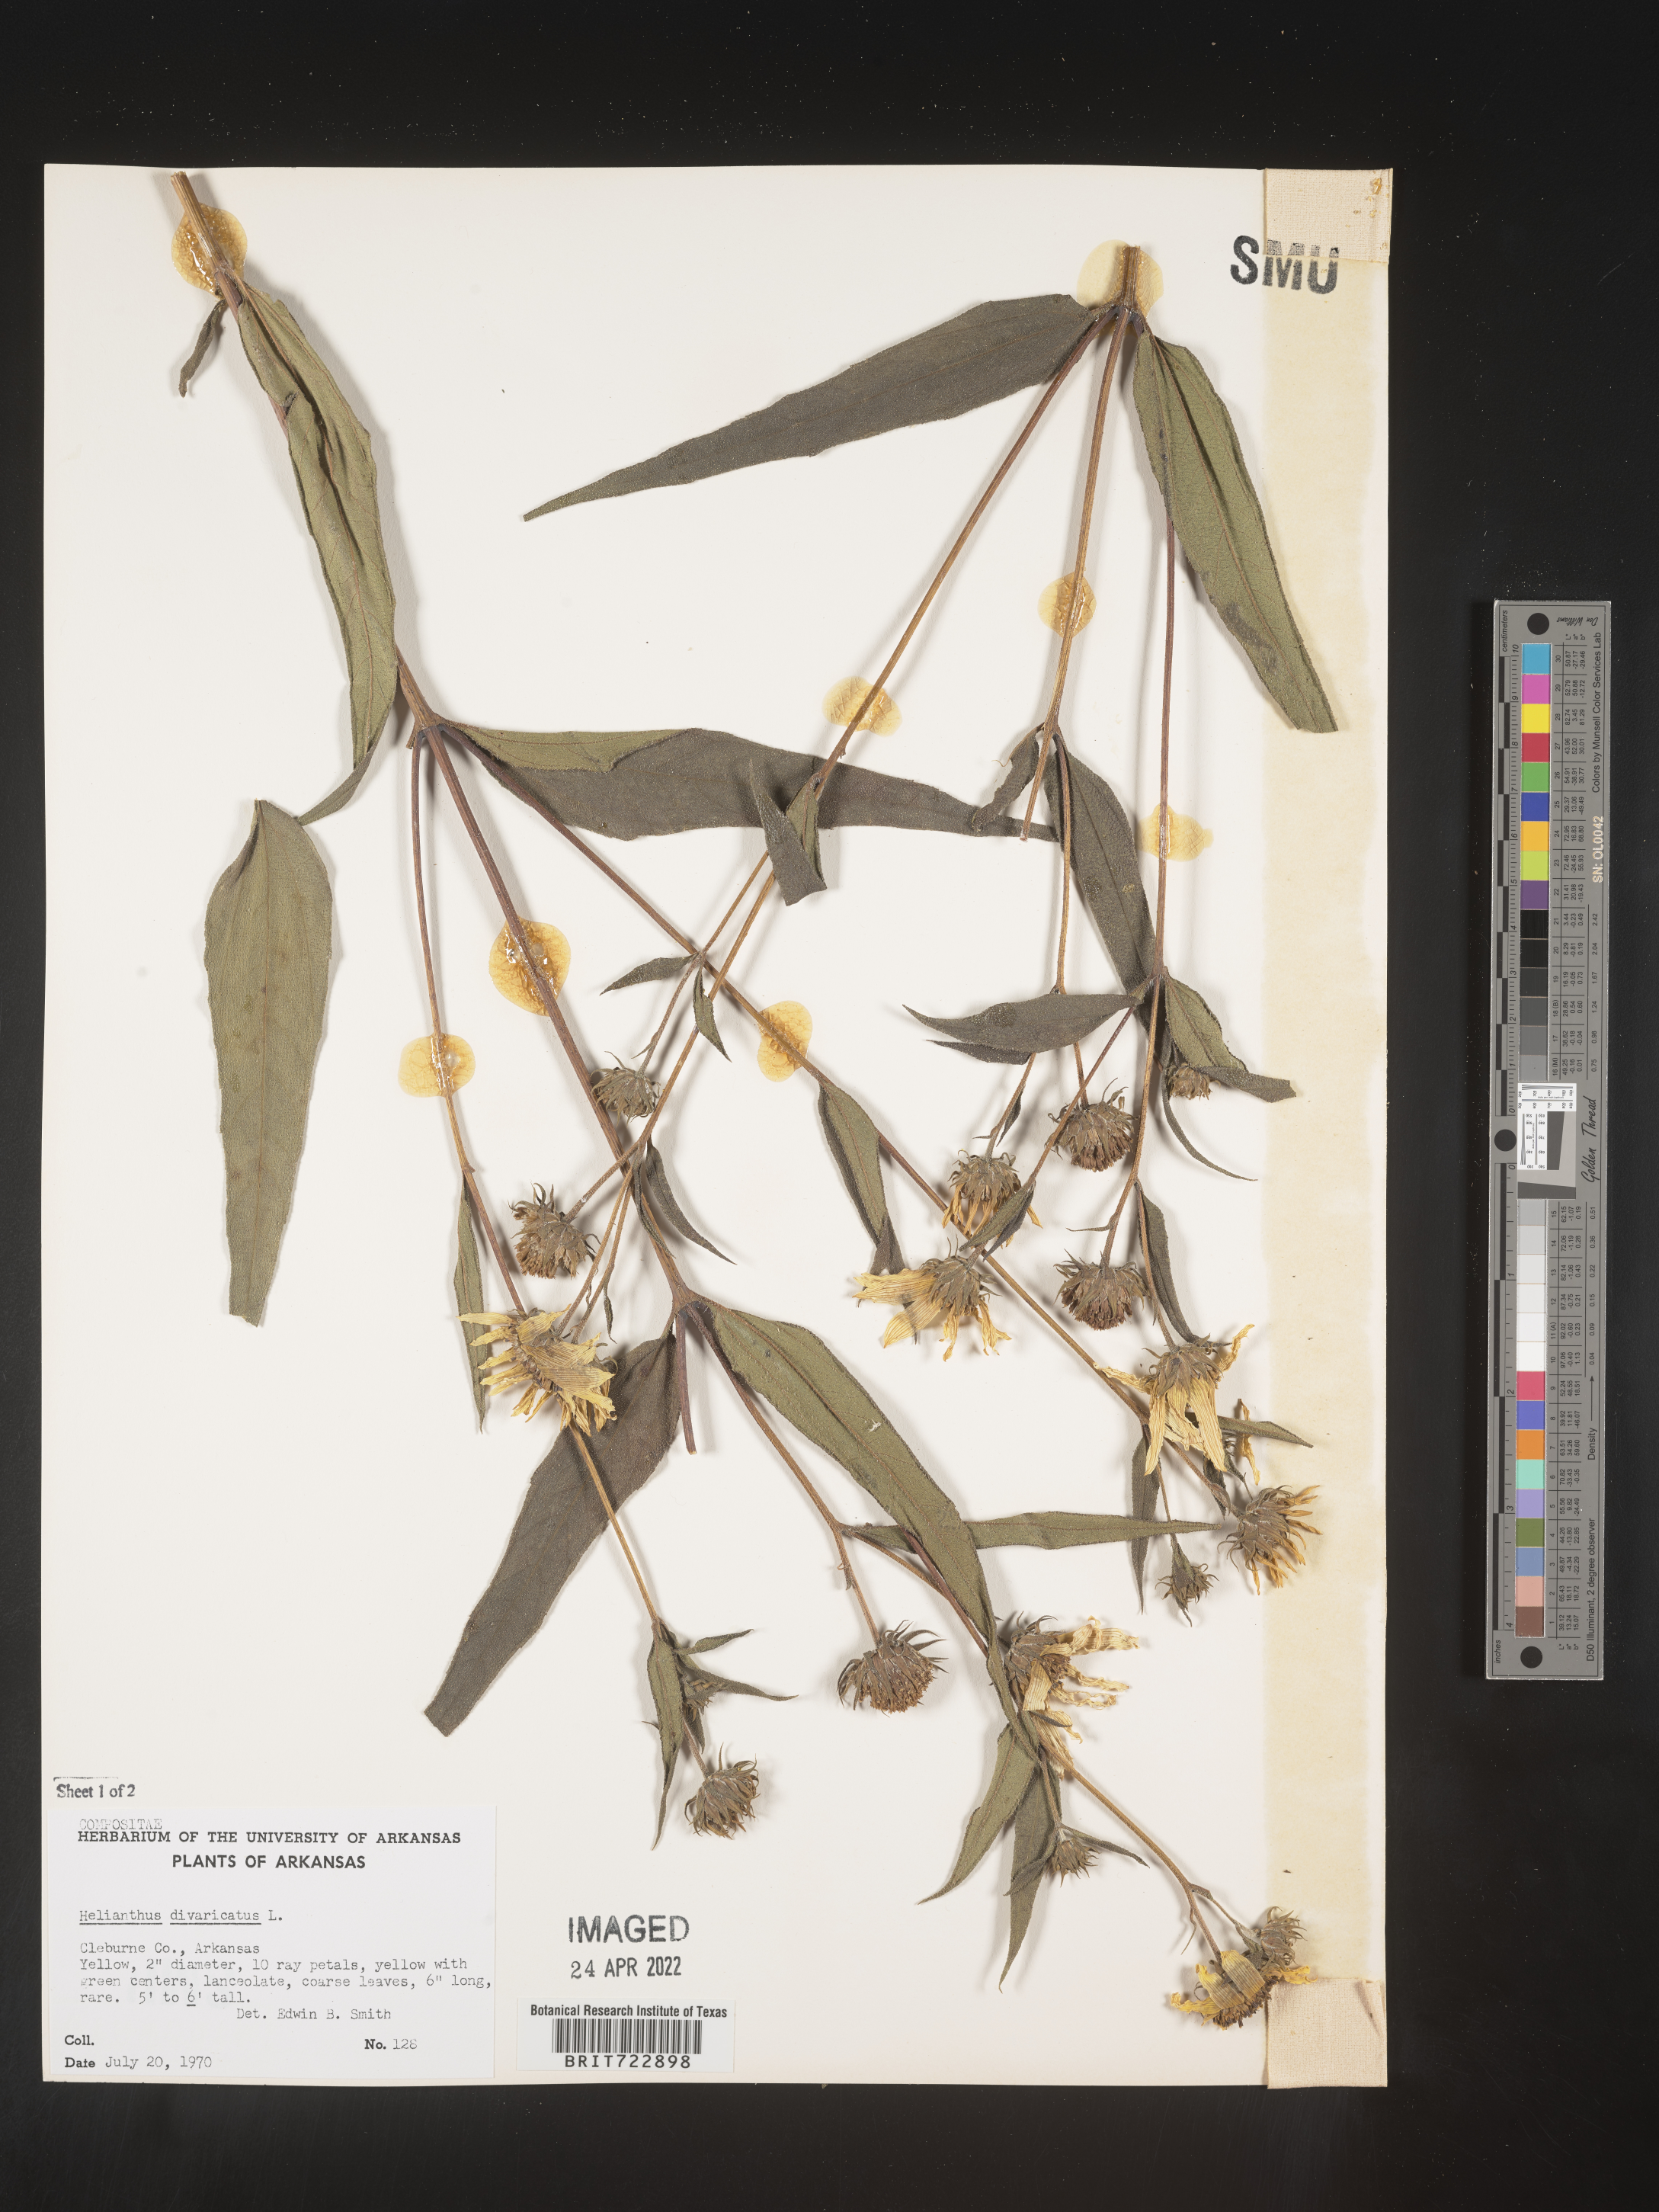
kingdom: Plantae
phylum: Tracheophyta
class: Magnoliopsida
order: Asterales
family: Asteraceae
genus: Helianthus
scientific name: Helianthus divaricatus
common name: Divergent sunflower
